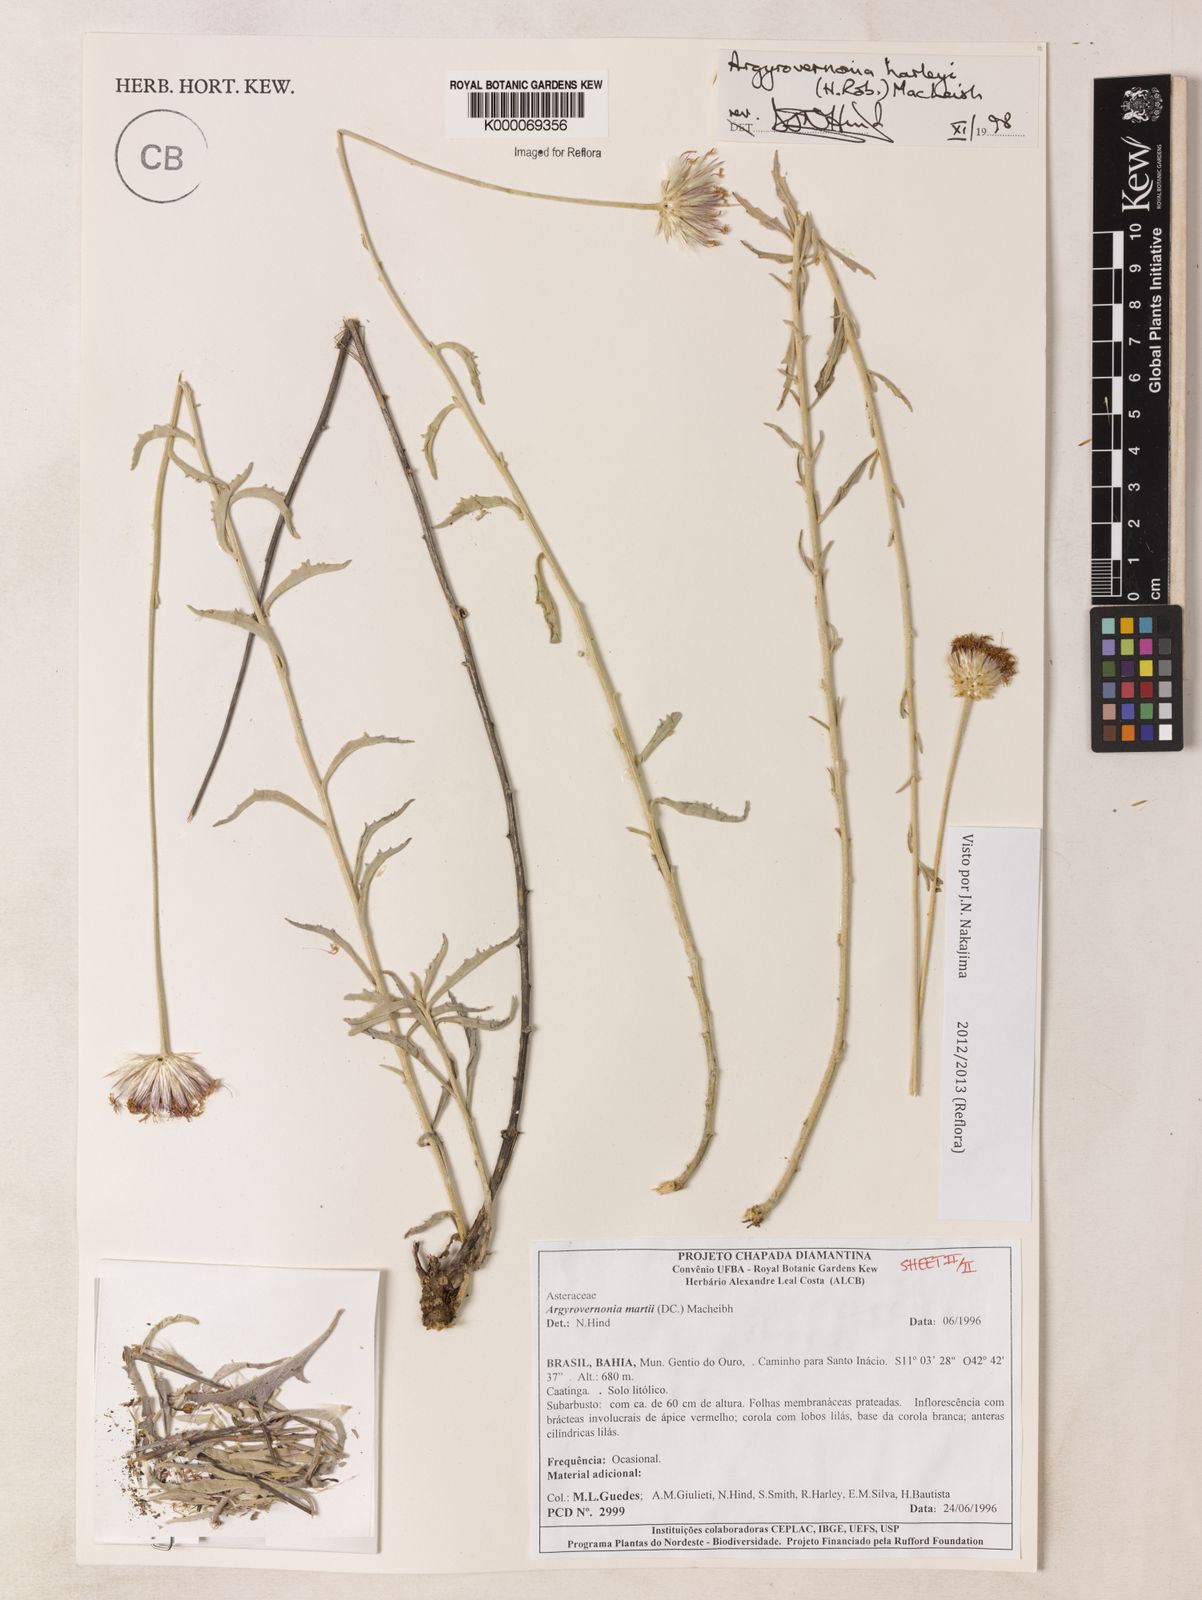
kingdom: Plantae
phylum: Tracheophyta
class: Magnoliopsida
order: Asterales
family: Asteraceae
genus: Chresta
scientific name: Chresta harleyi
